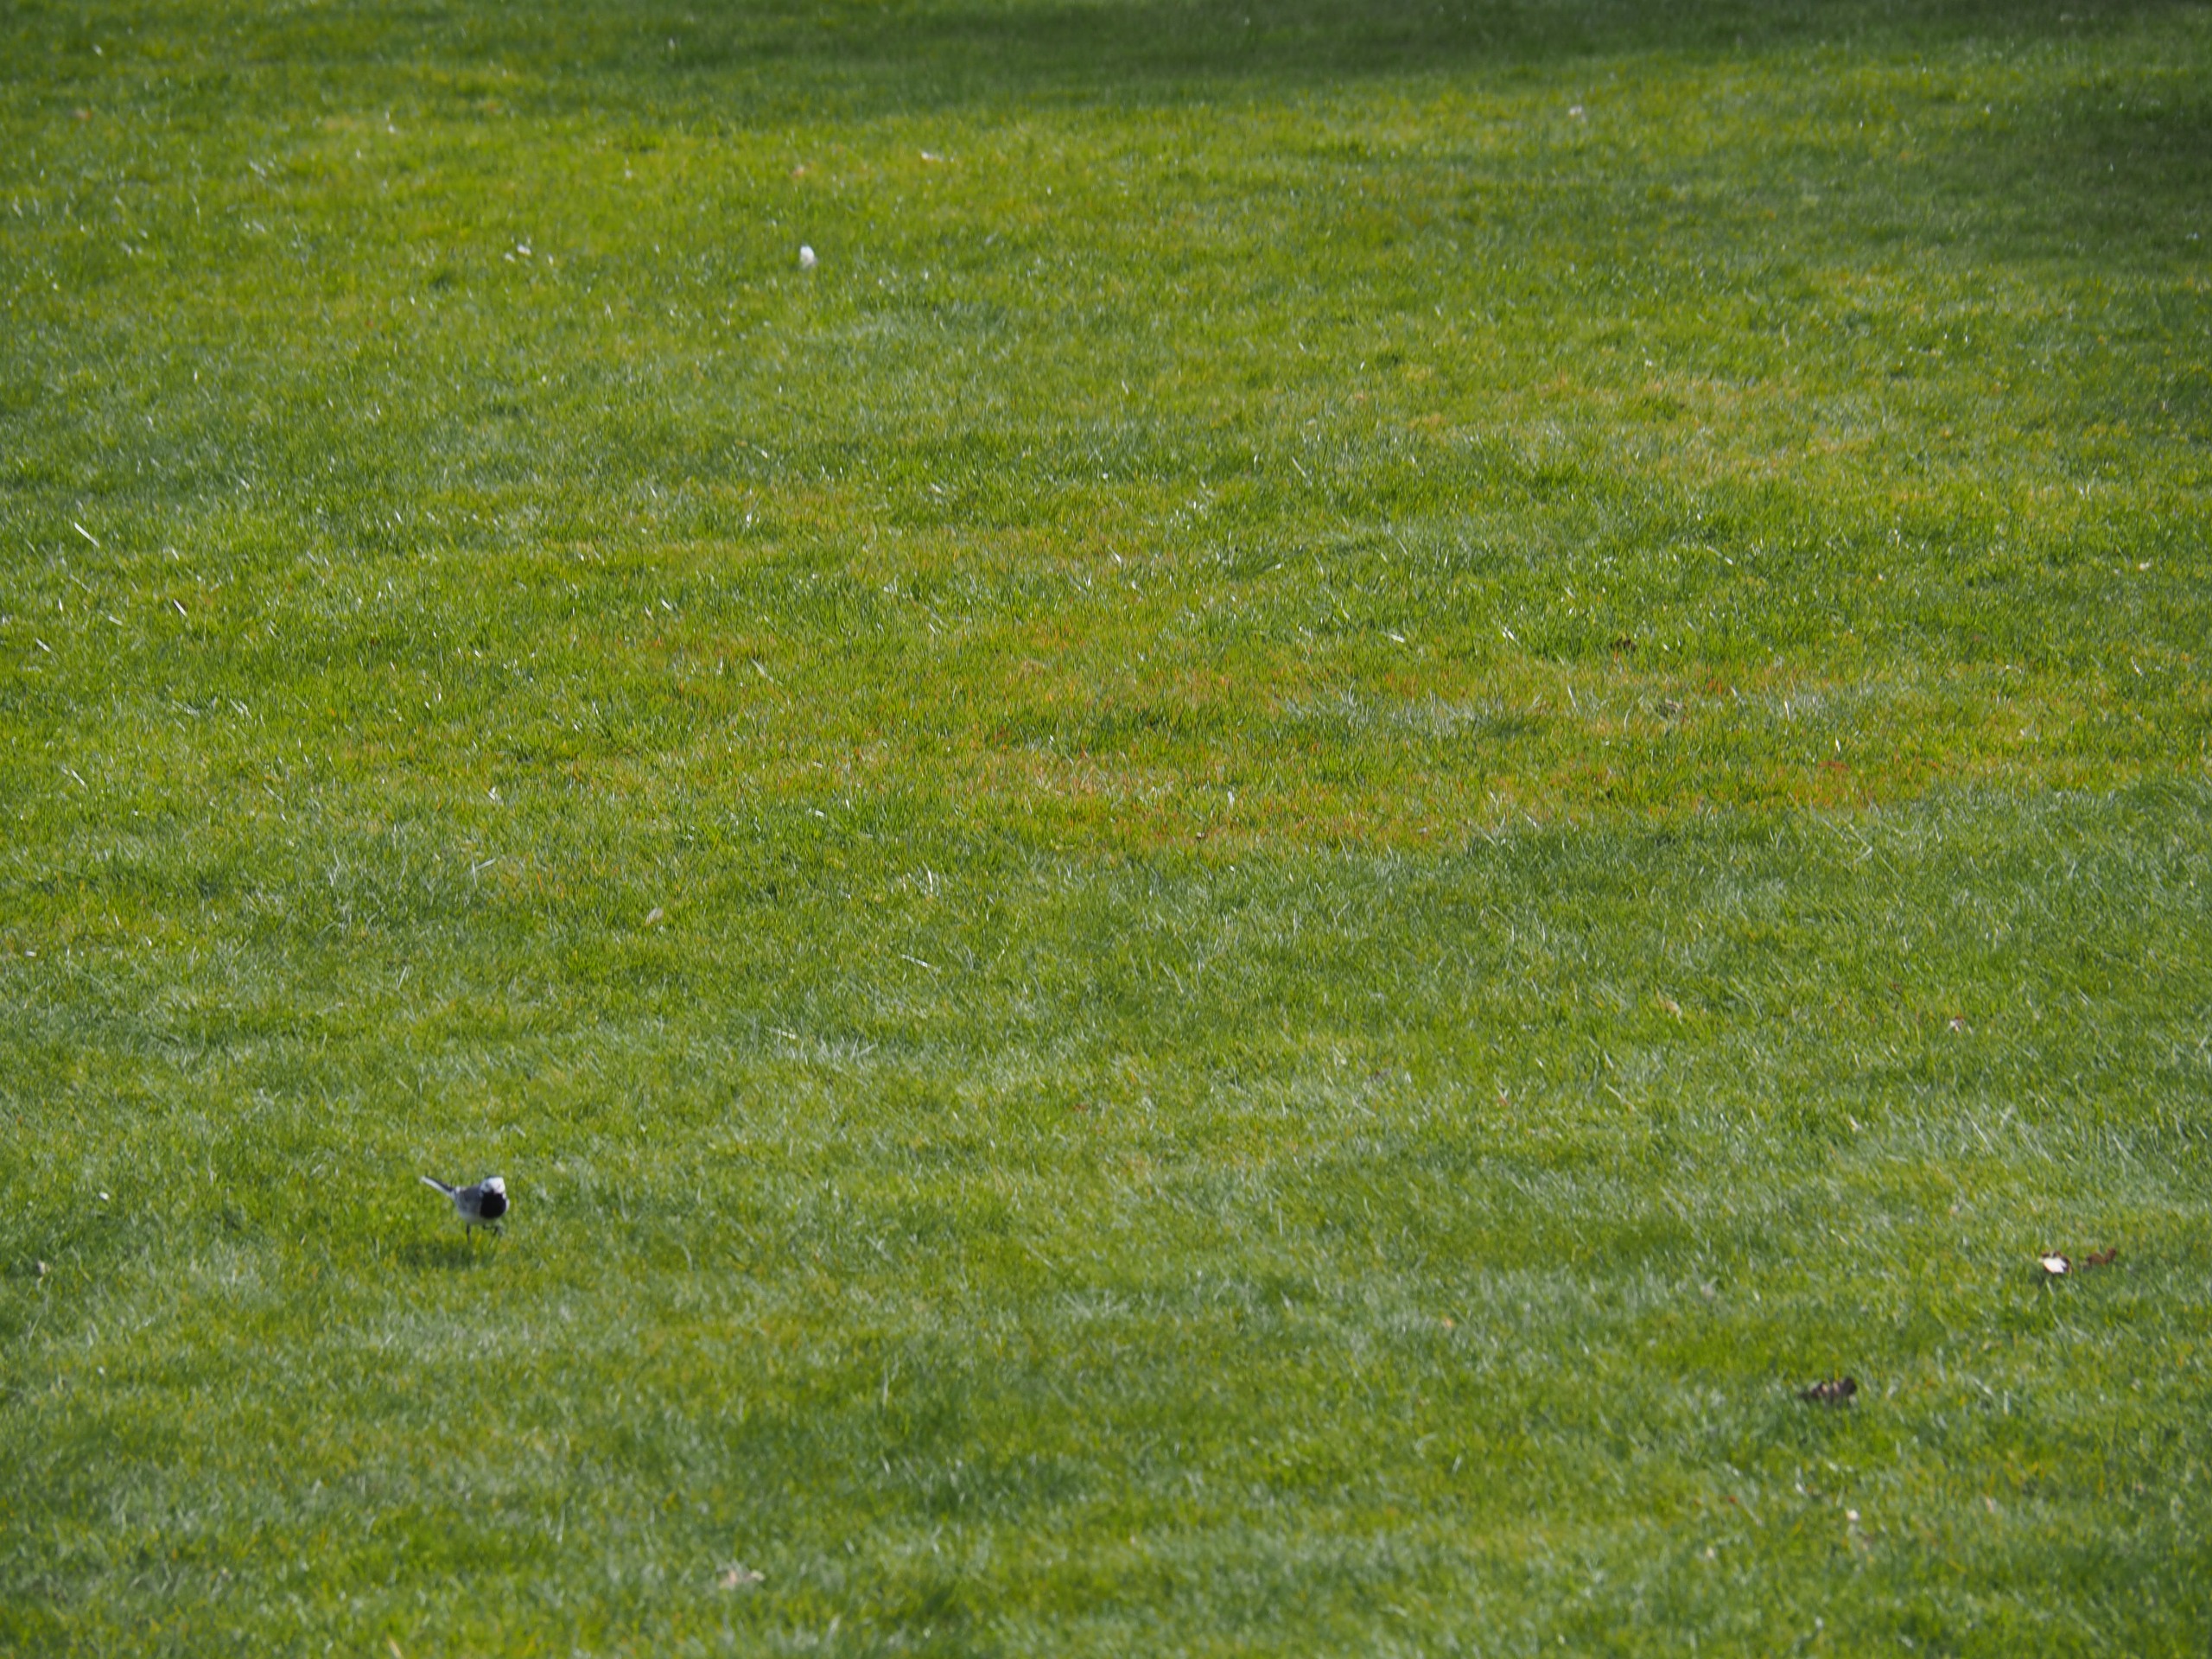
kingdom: Animalia
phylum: Chordata
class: Aves
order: Passeriformes
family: Motacillidae
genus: Motacilla
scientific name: Motacilla alba
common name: Hvid vipstjert
